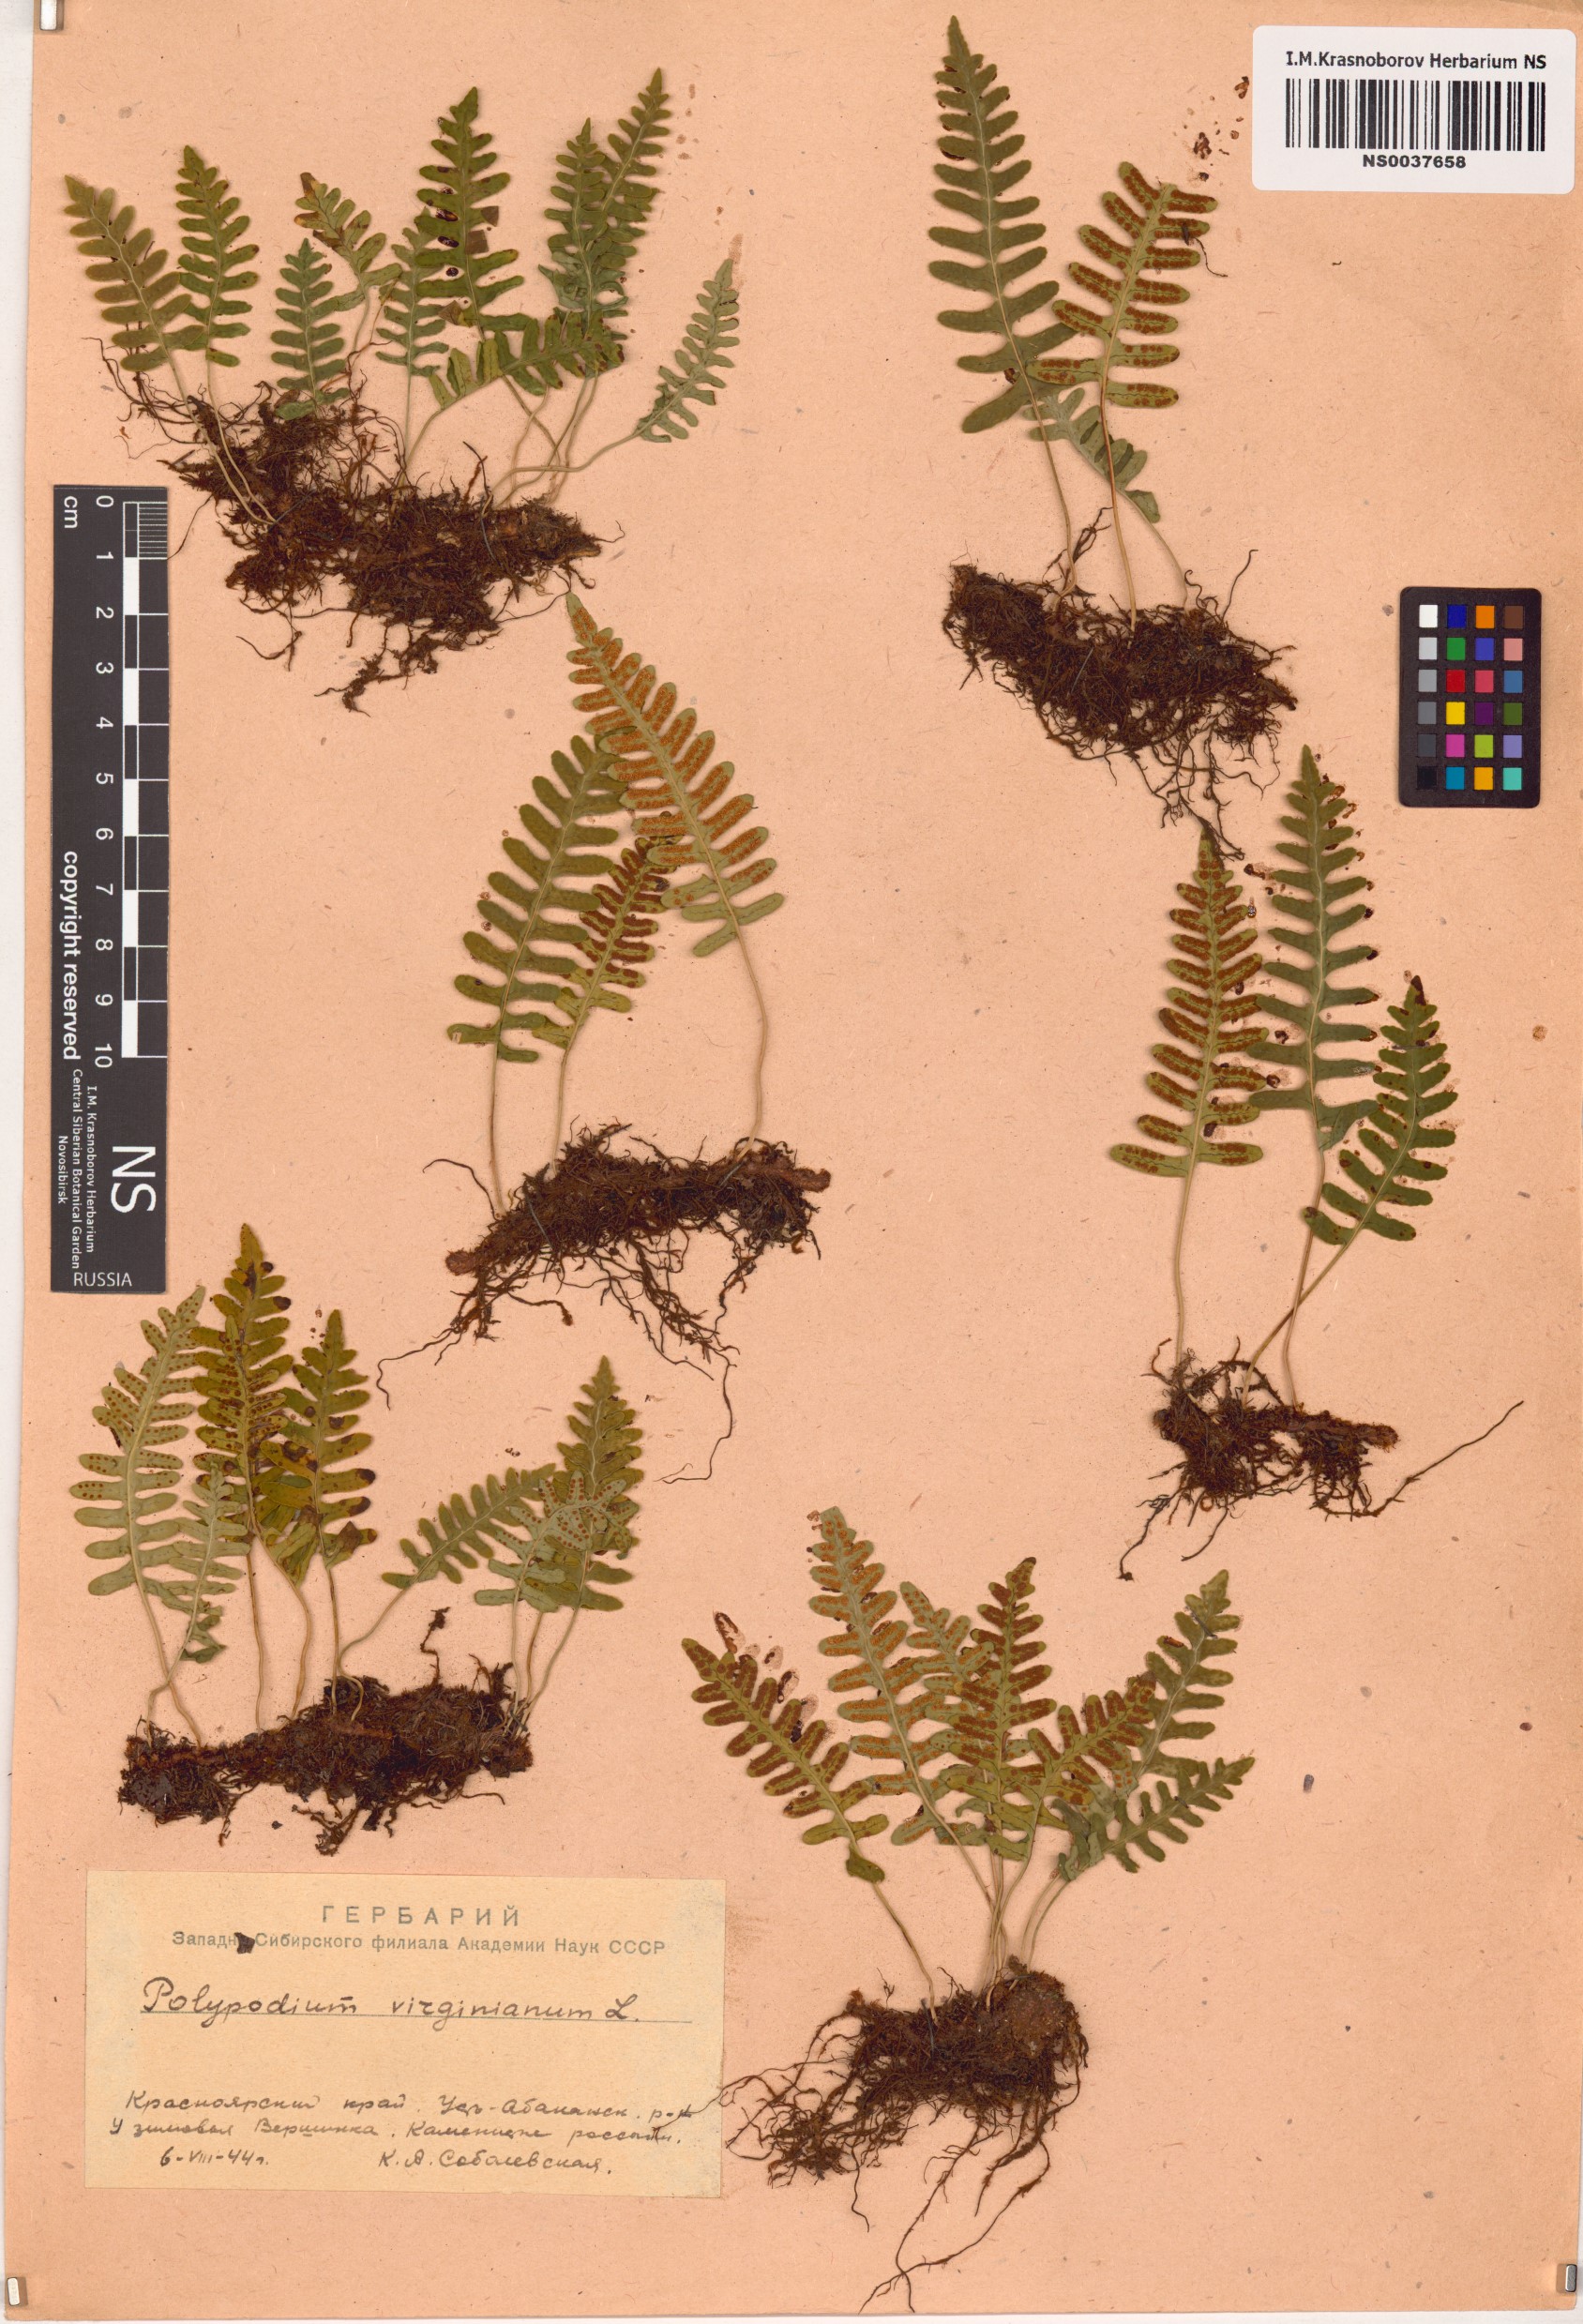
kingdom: Plantae
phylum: Tracheophyta
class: Polypodiopsida
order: Polypodiales
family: Polypodiaceae
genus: Polypodium
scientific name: Polypodium virginianum
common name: American wall fern
